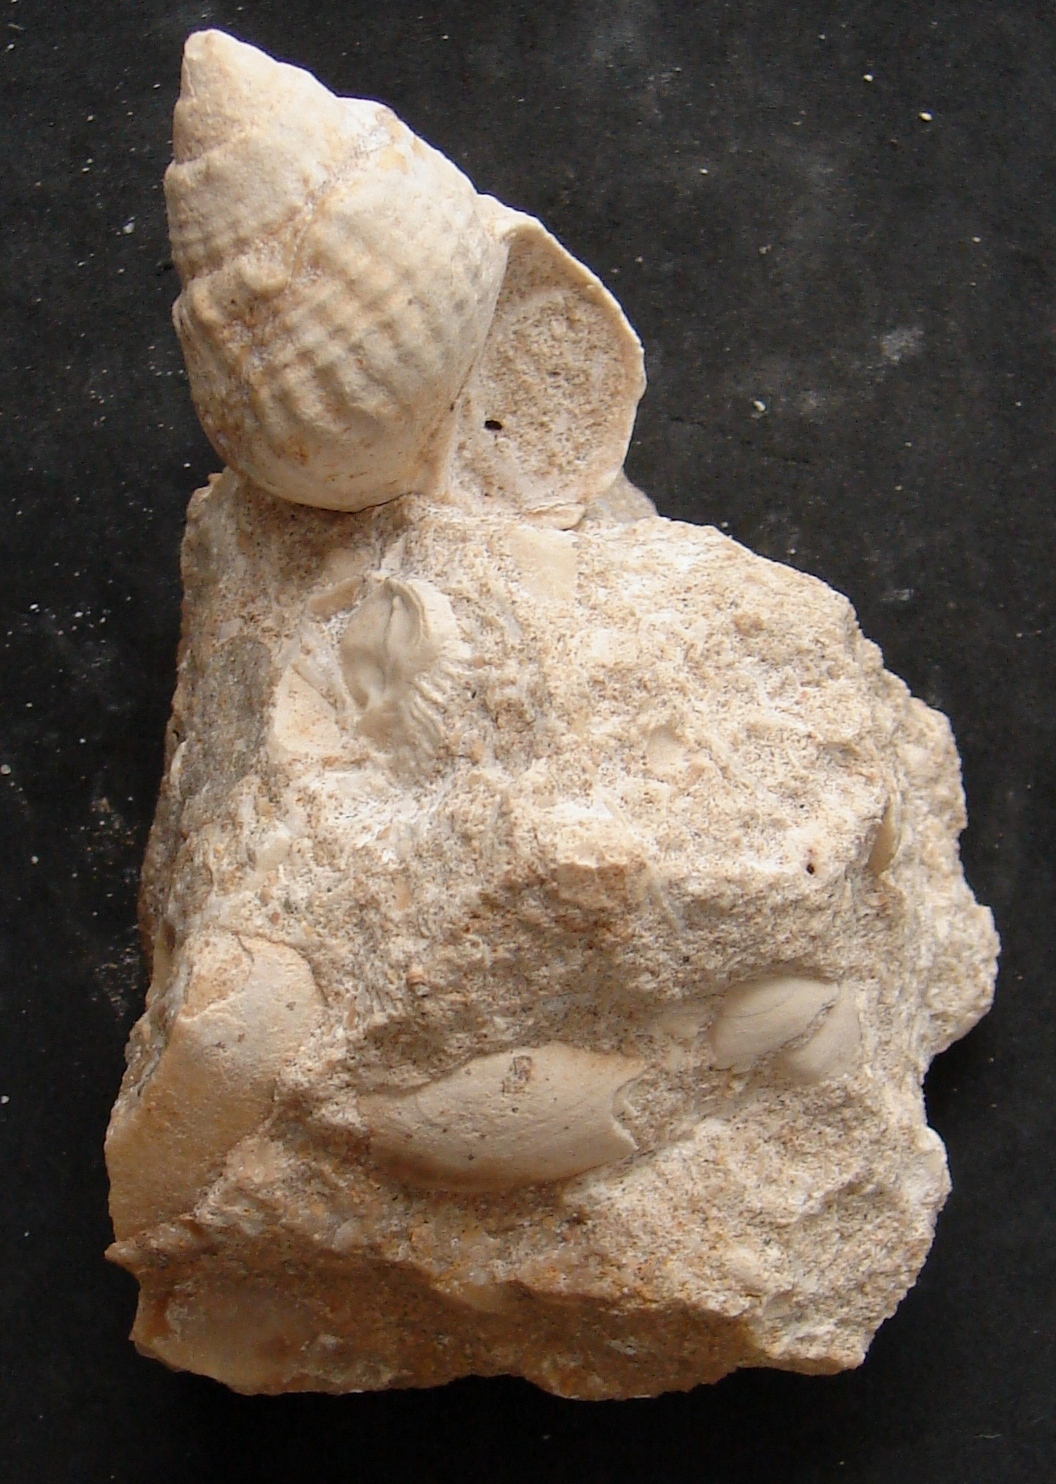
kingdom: Animalia
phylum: Mollusca
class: Gastropoda
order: Neogastropoda
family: Purpurinidae
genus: Microschiza
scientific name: Microschiza
